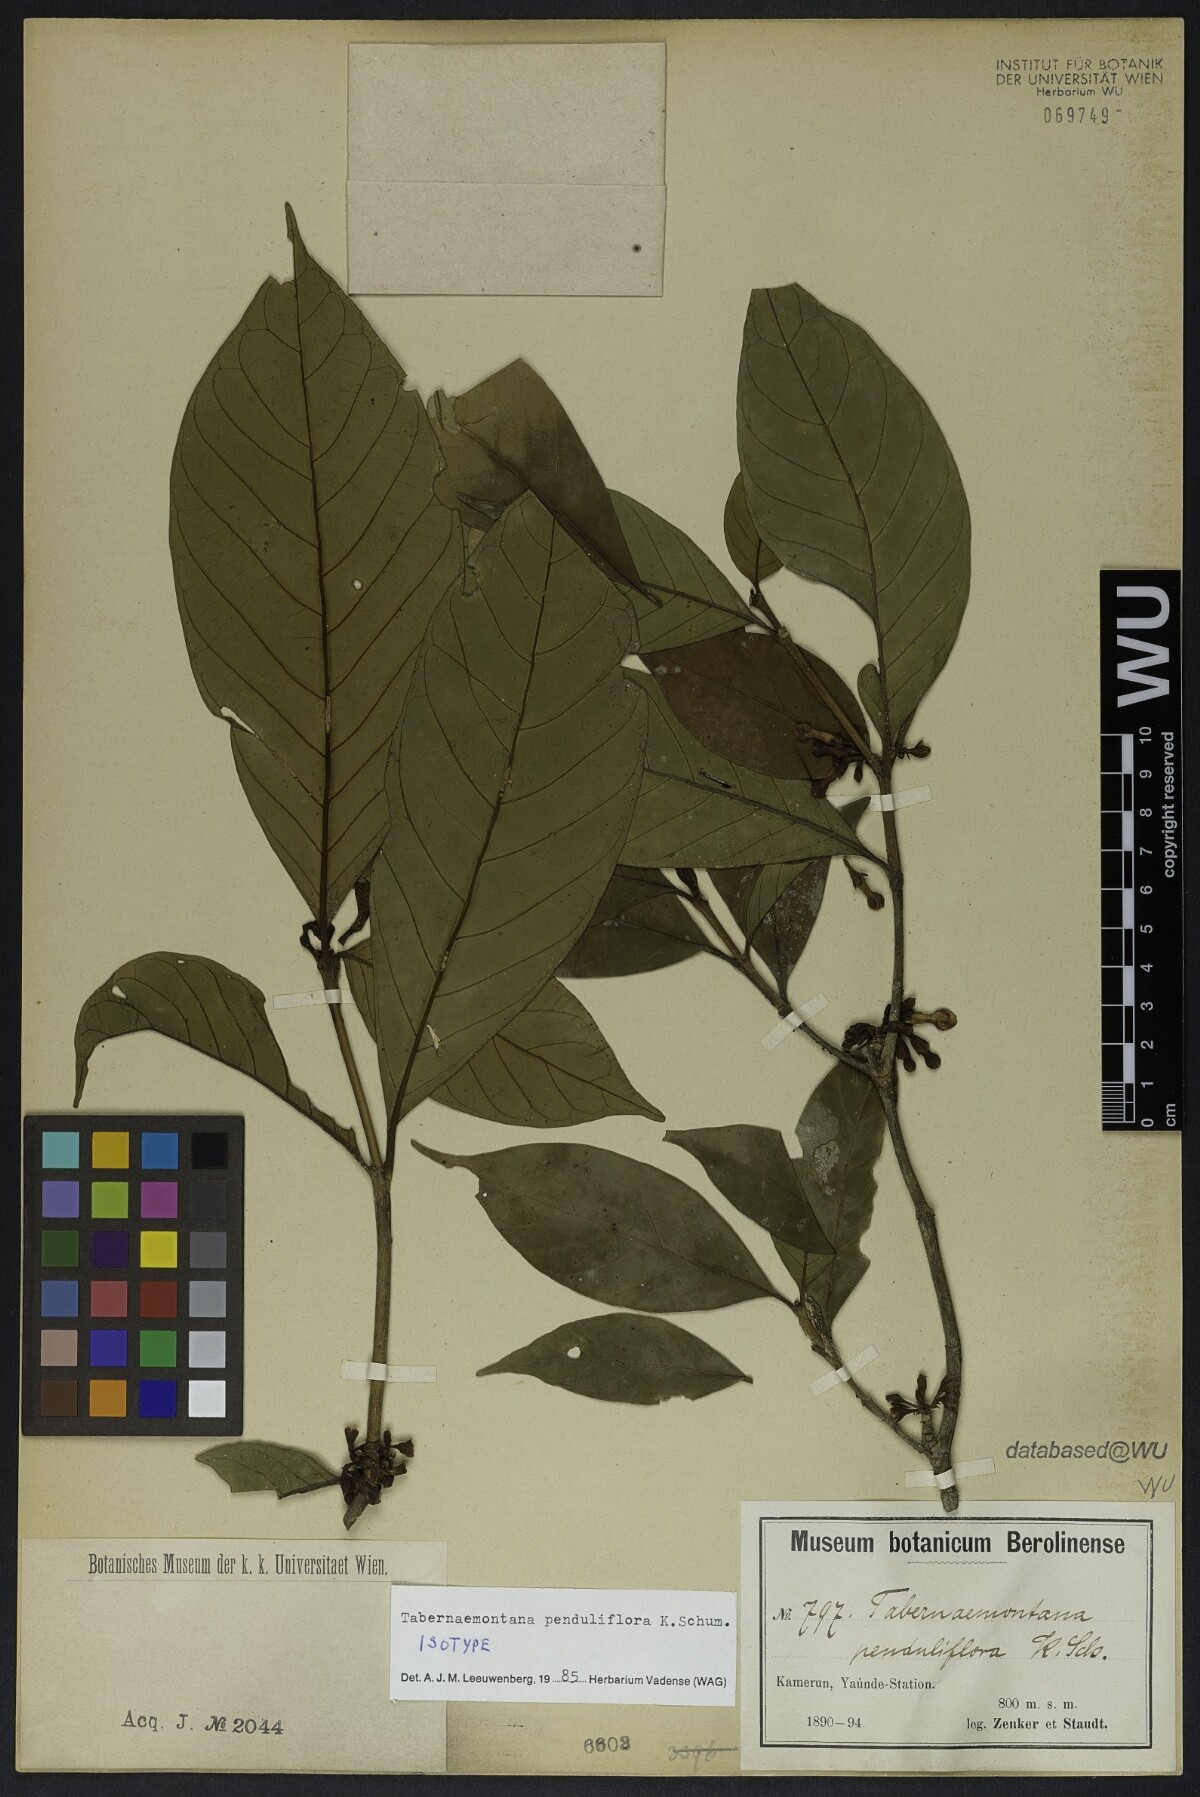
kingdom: Plantae
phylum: Tracheophyta
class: Magnoliopsida
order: Gentianales
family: Apocynaceae
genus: Tabernaemontana
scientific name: Tabernaemontana penduliflora
